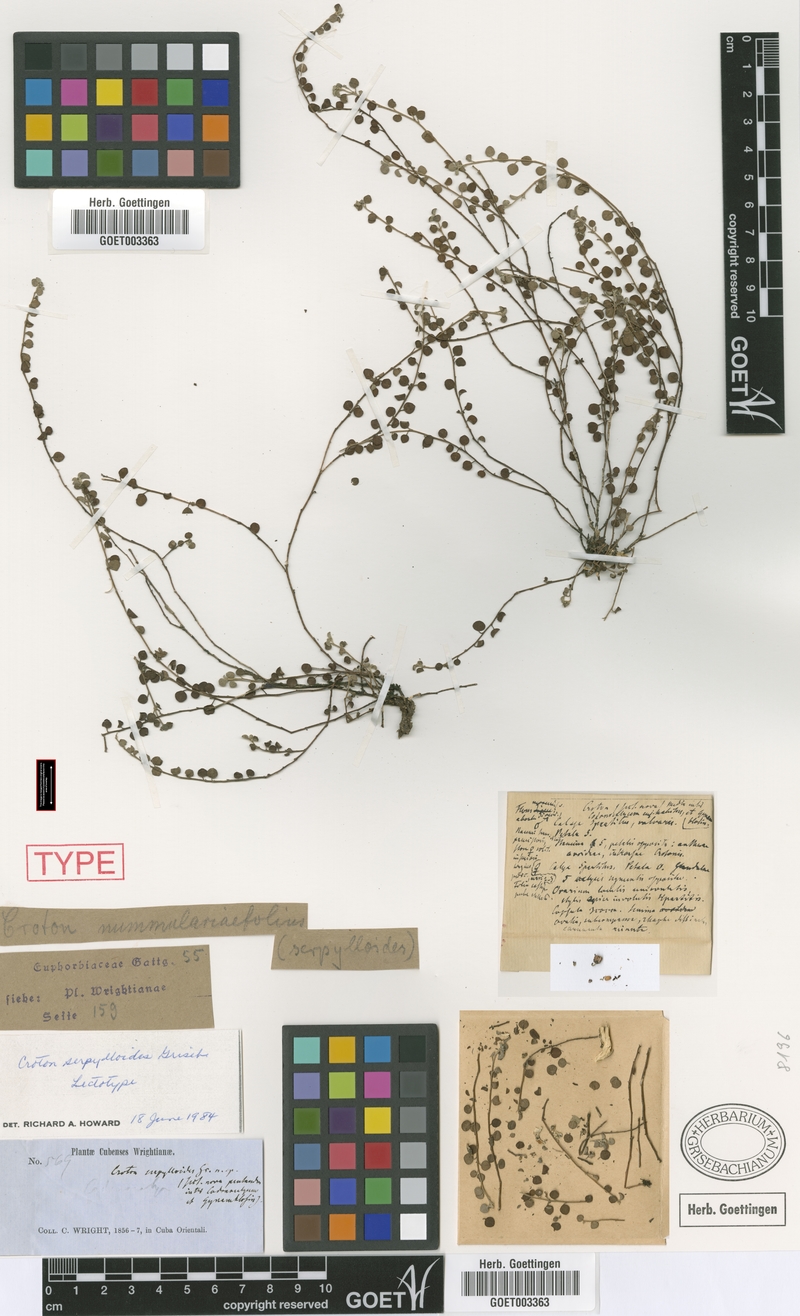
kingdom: Plantae
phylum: Tracheophyta
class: Magnoliopsida
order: Malpighiales
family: Euphorbiaceae
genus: Croton
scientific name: Croton microcarpus
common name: Money croton
